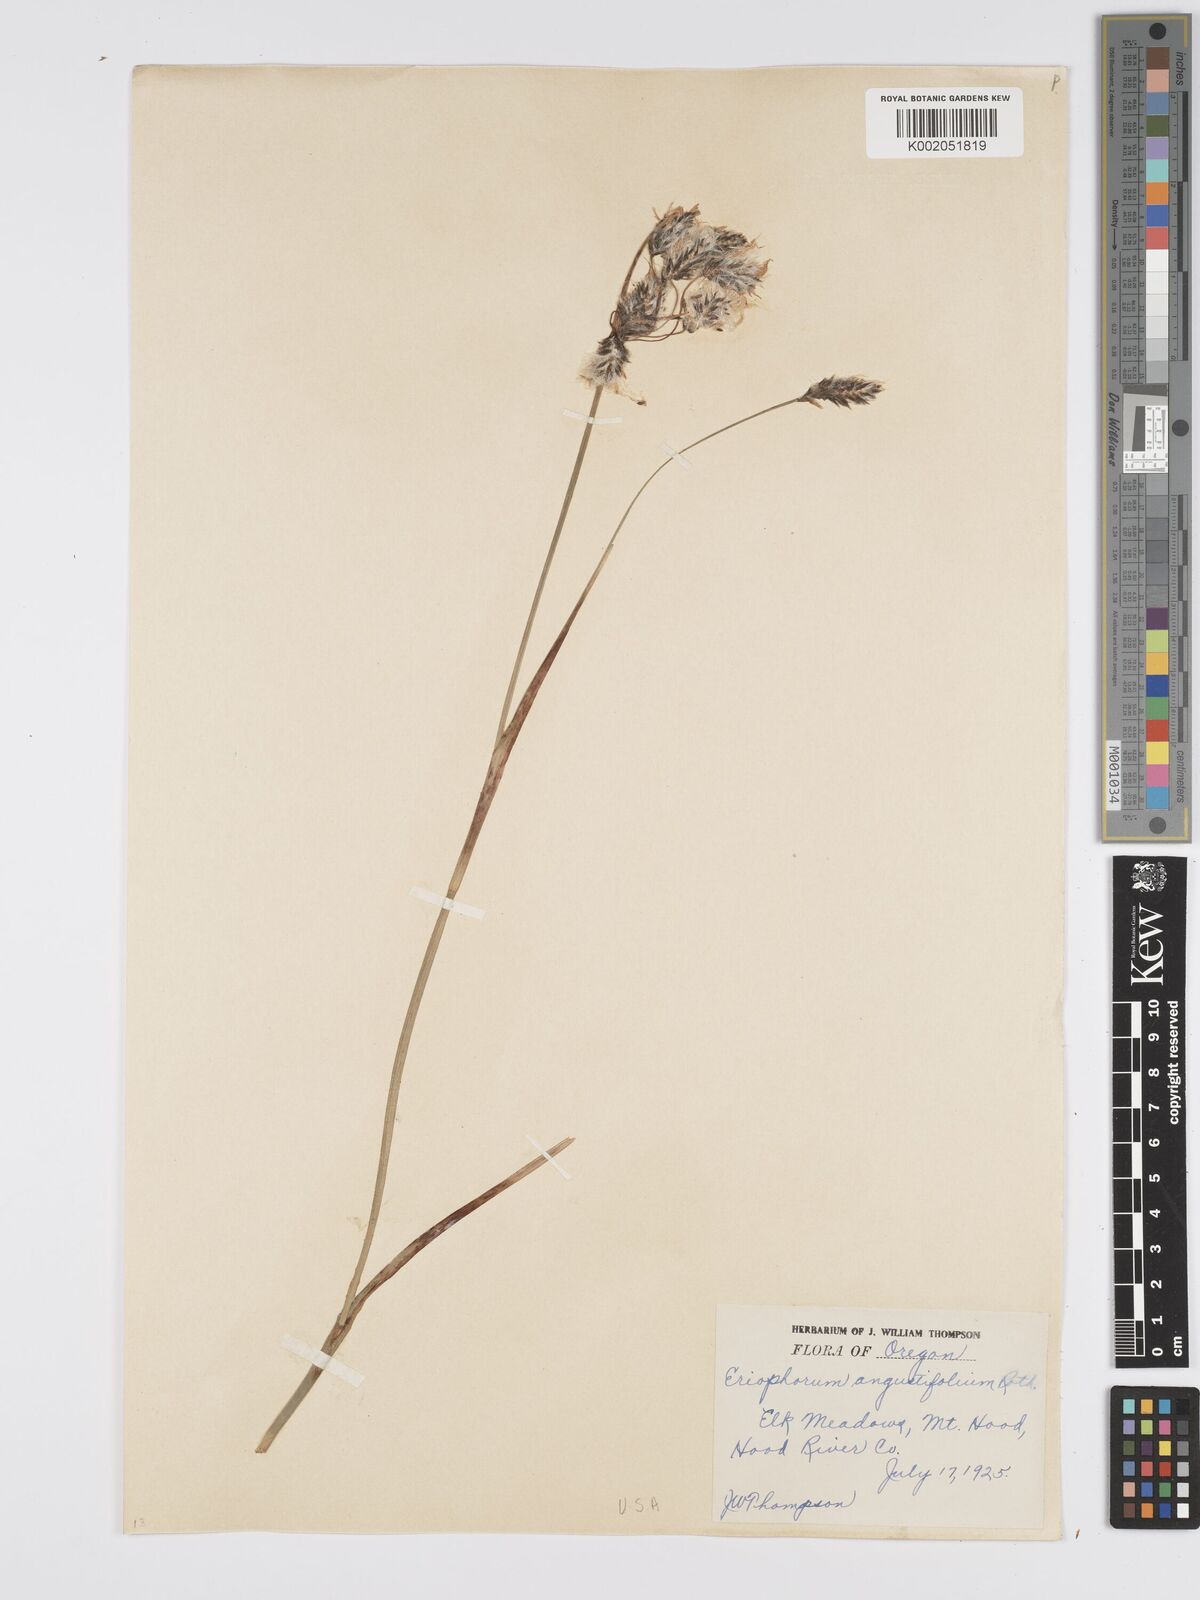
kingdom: Plantae
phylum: Tracheophyta
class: Liliopsida
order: Poales
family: Cyperaceae
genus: Eriophorum
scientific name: Eriophorum angustifolium
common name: Common cottongrass
